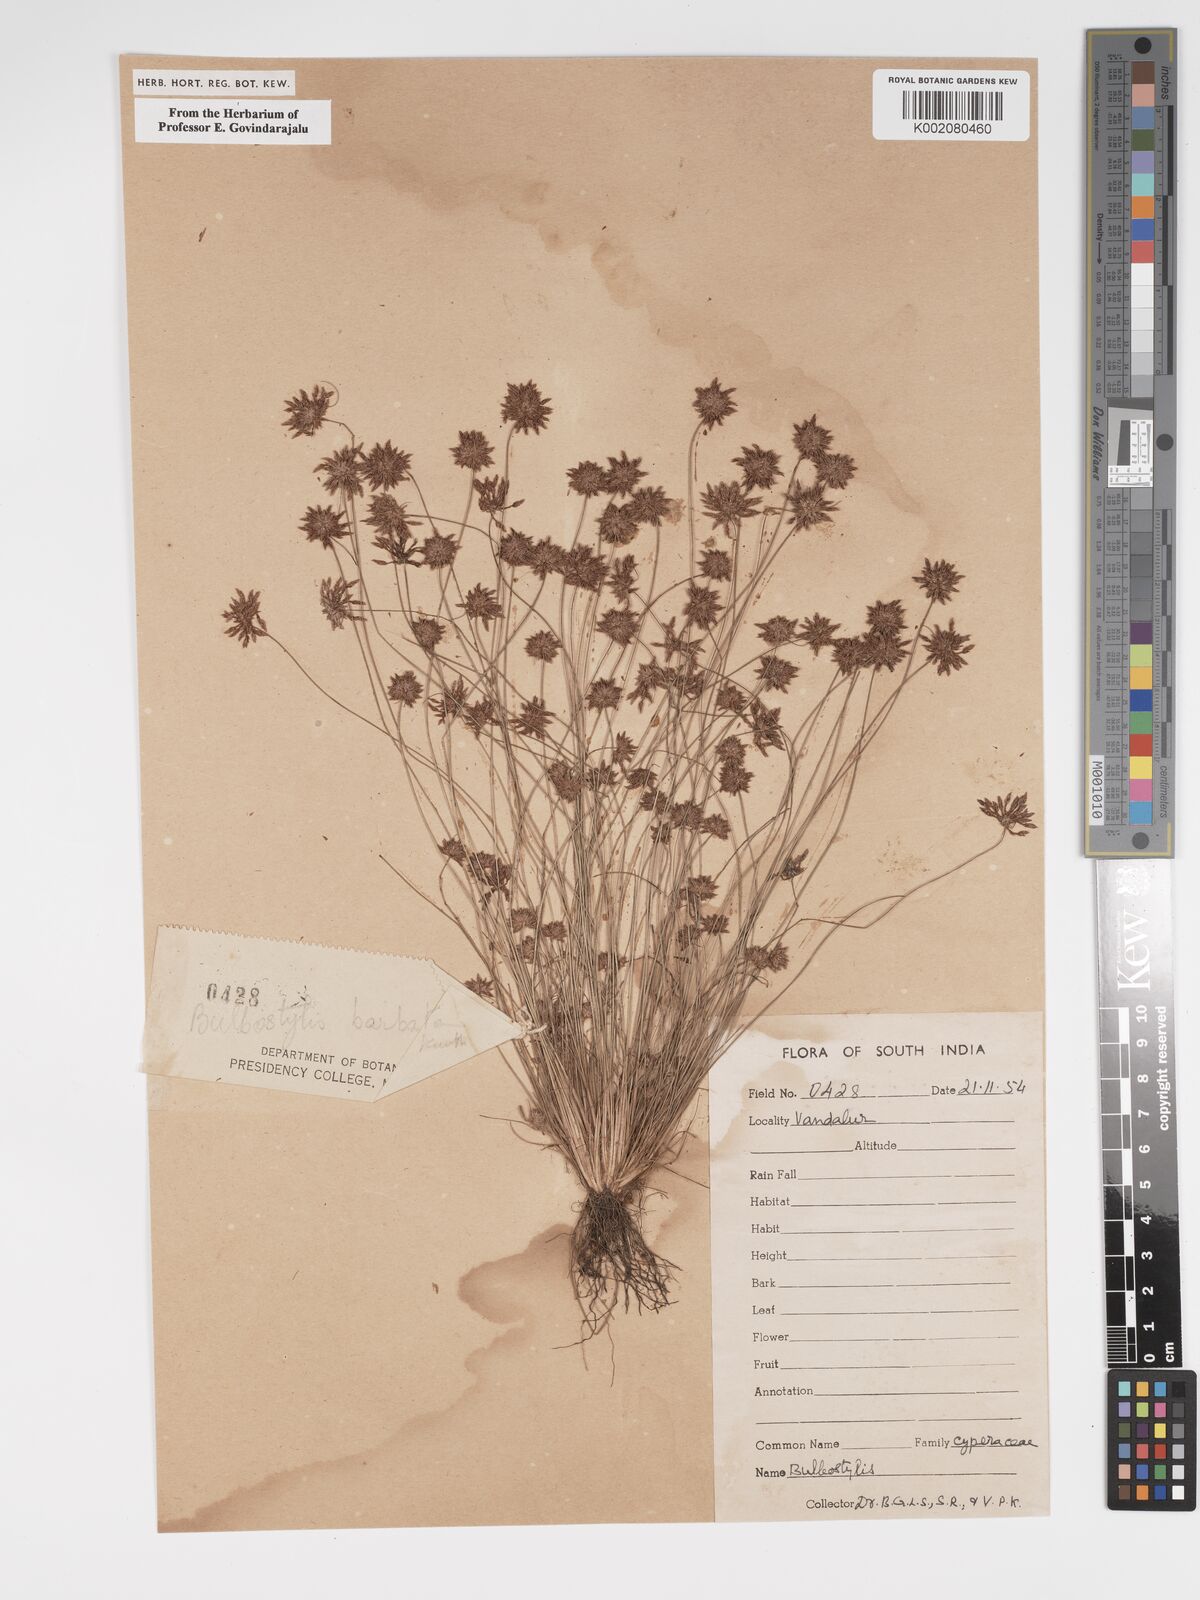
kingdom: Plantae
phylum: Tracheophyta
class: Liliopsida
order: Poales
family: Cyperaceae
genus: Bulbostylis
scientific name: Bulbostylis barbata
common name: Watergrass
